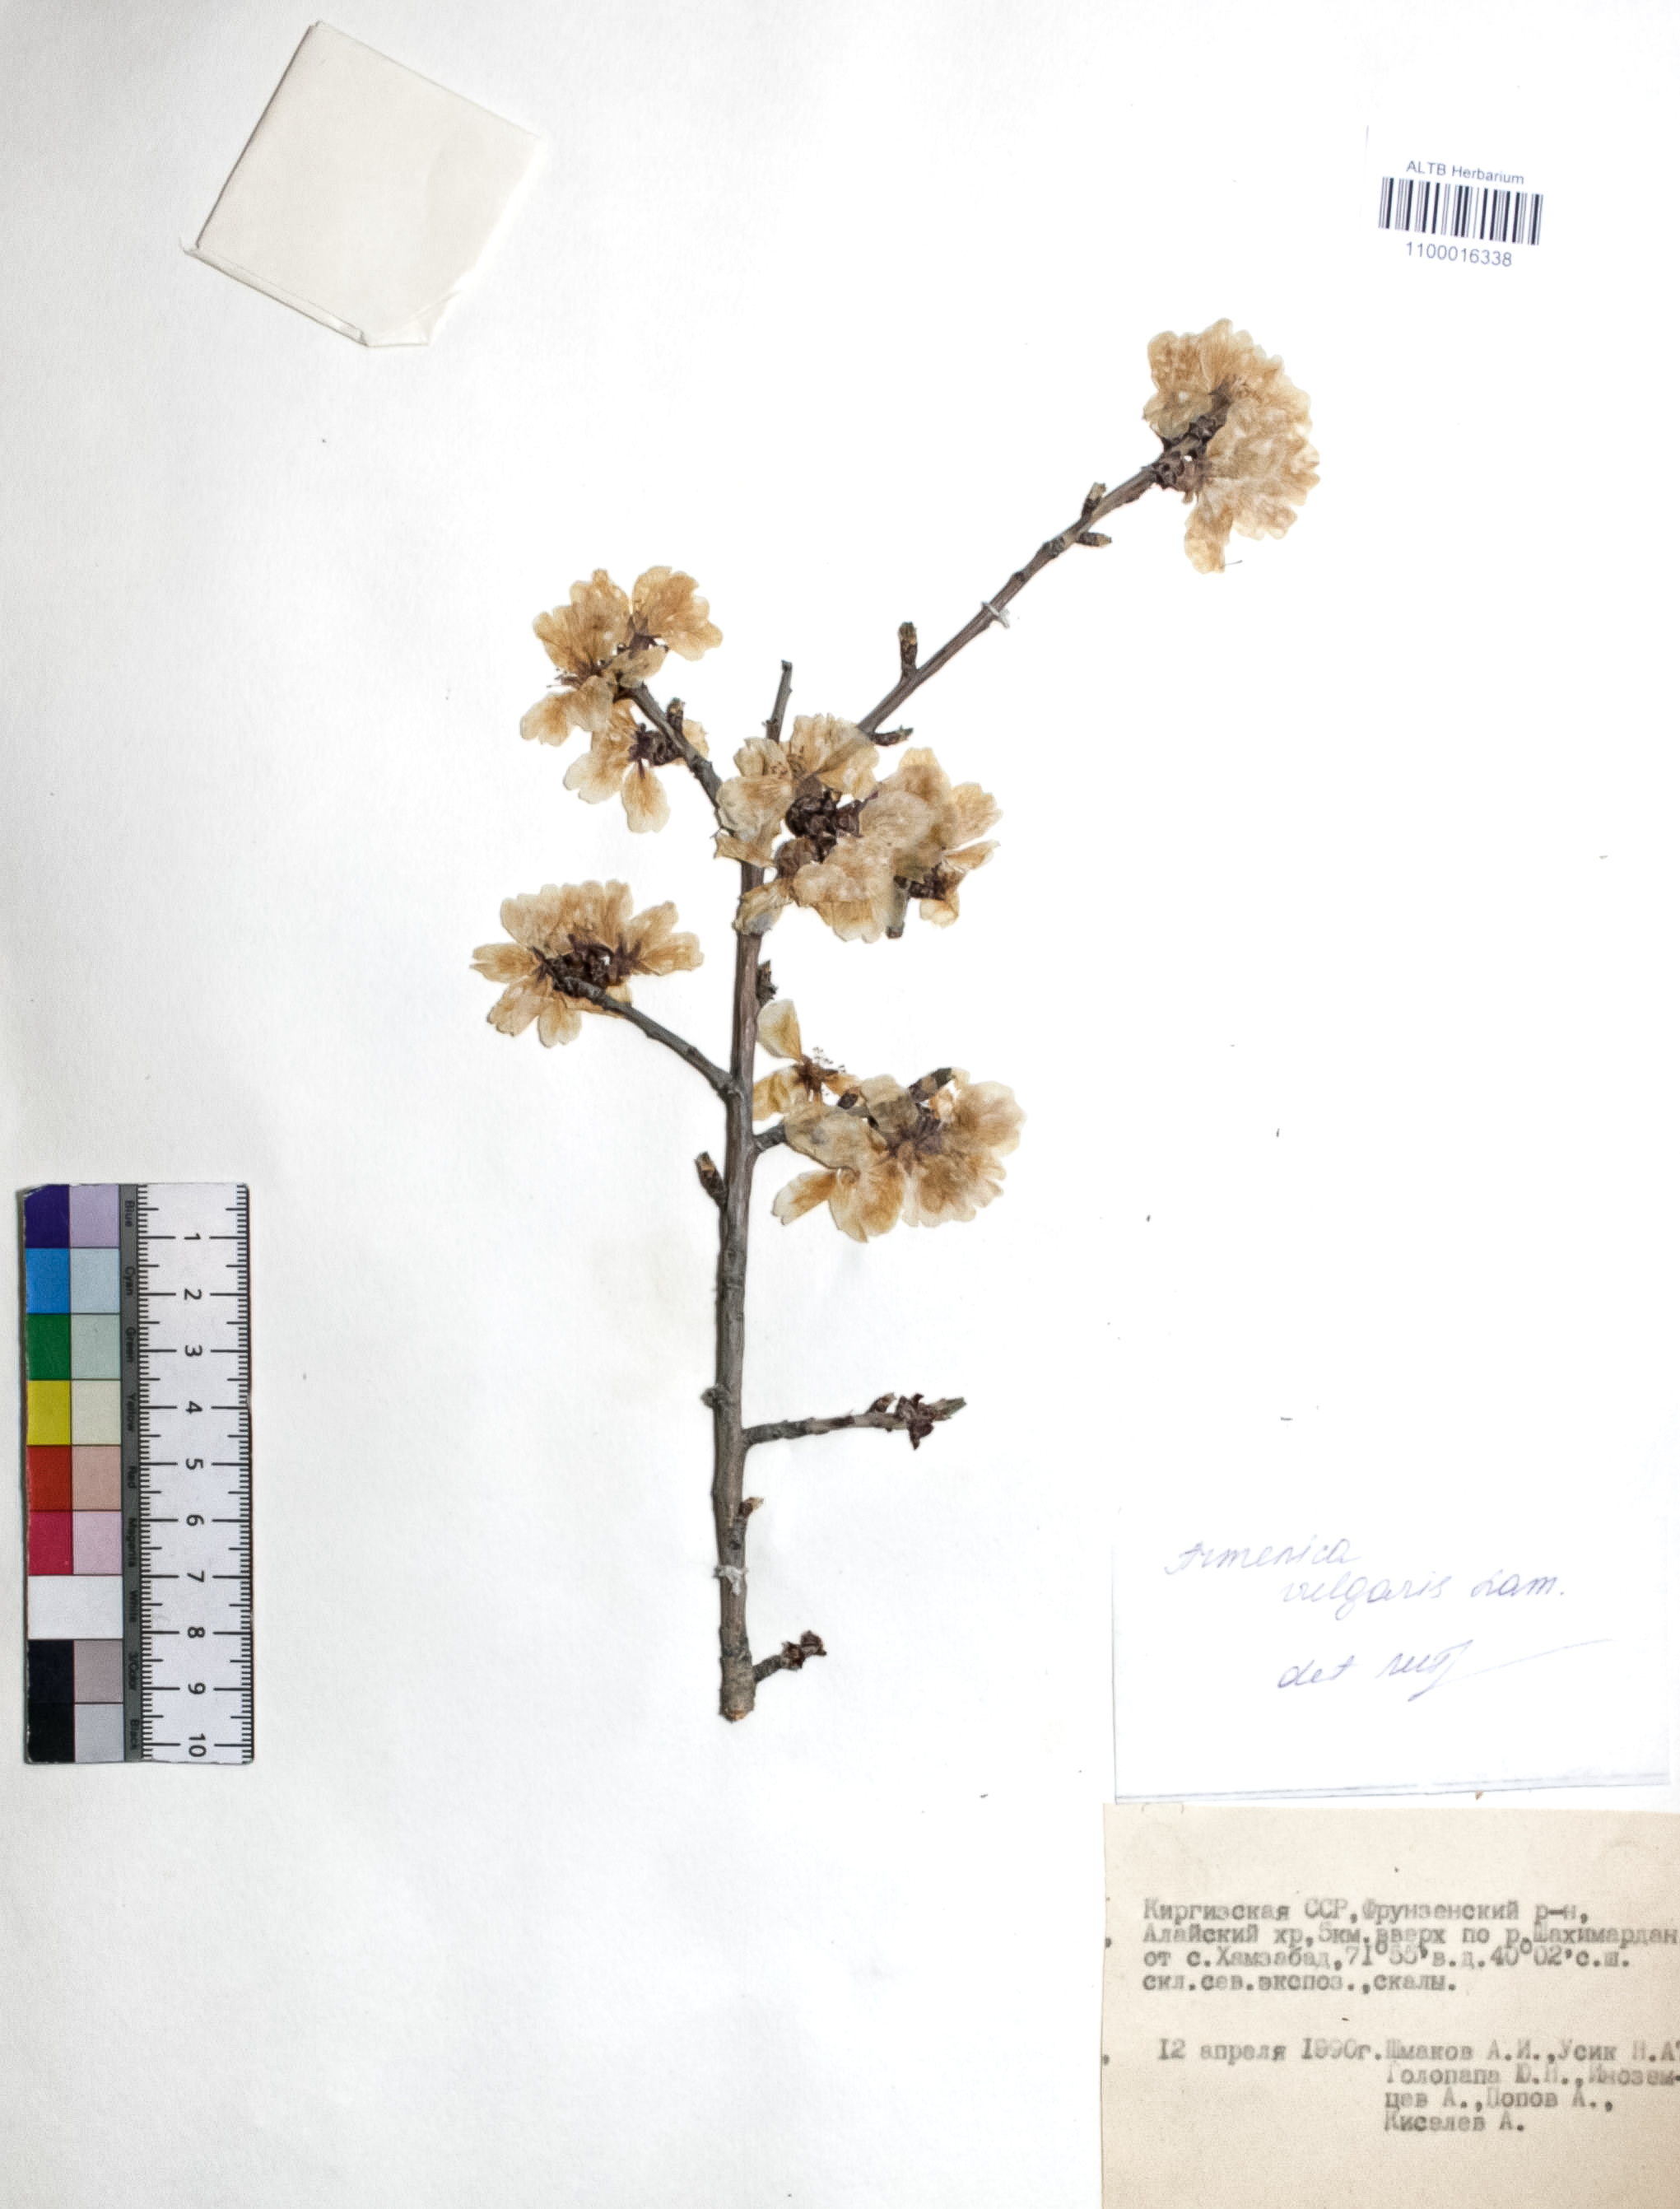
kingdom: Plantae
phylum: Tracheophyta
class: Magnoliopsida
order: Rosales
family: Rosaceae
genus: Prunus
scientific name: Prunus armeniaca
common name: Apricot
